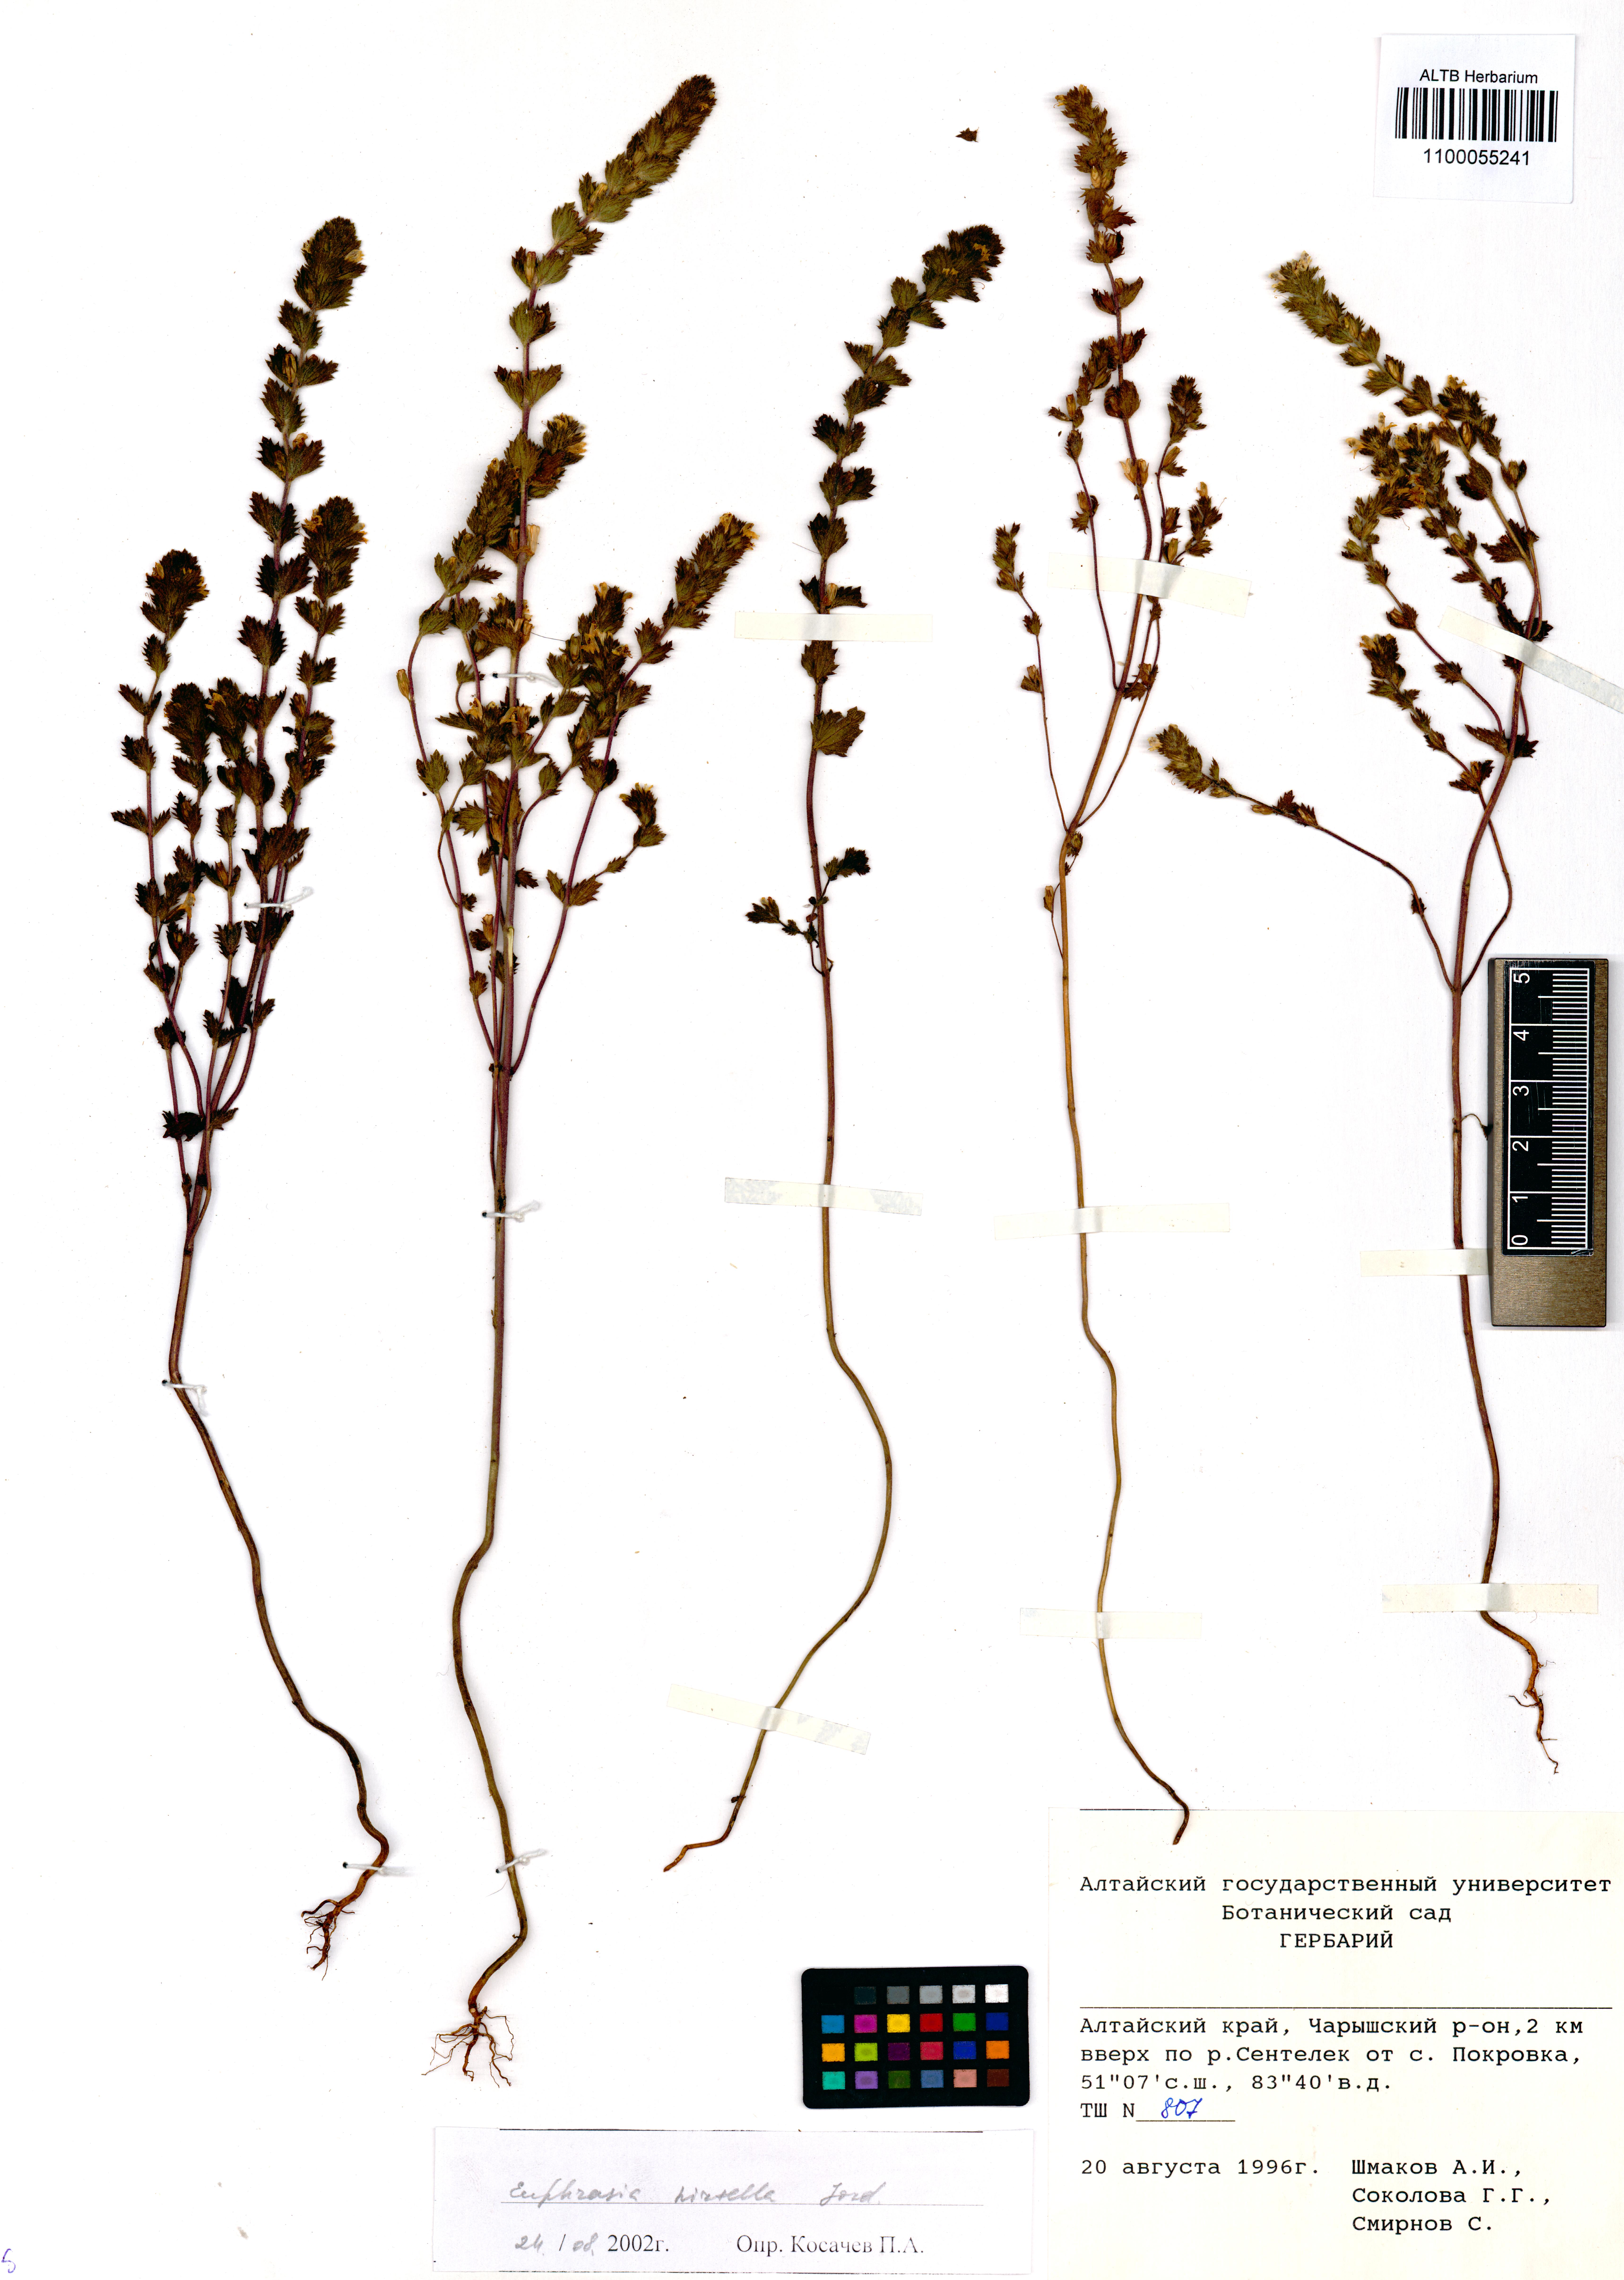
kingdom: Plantae
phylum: Tracheophyta
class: Magnoliopsida
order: Lamiales
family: Orobanchaceae
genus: Euphrasia
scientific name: Euphrasia hirtella
